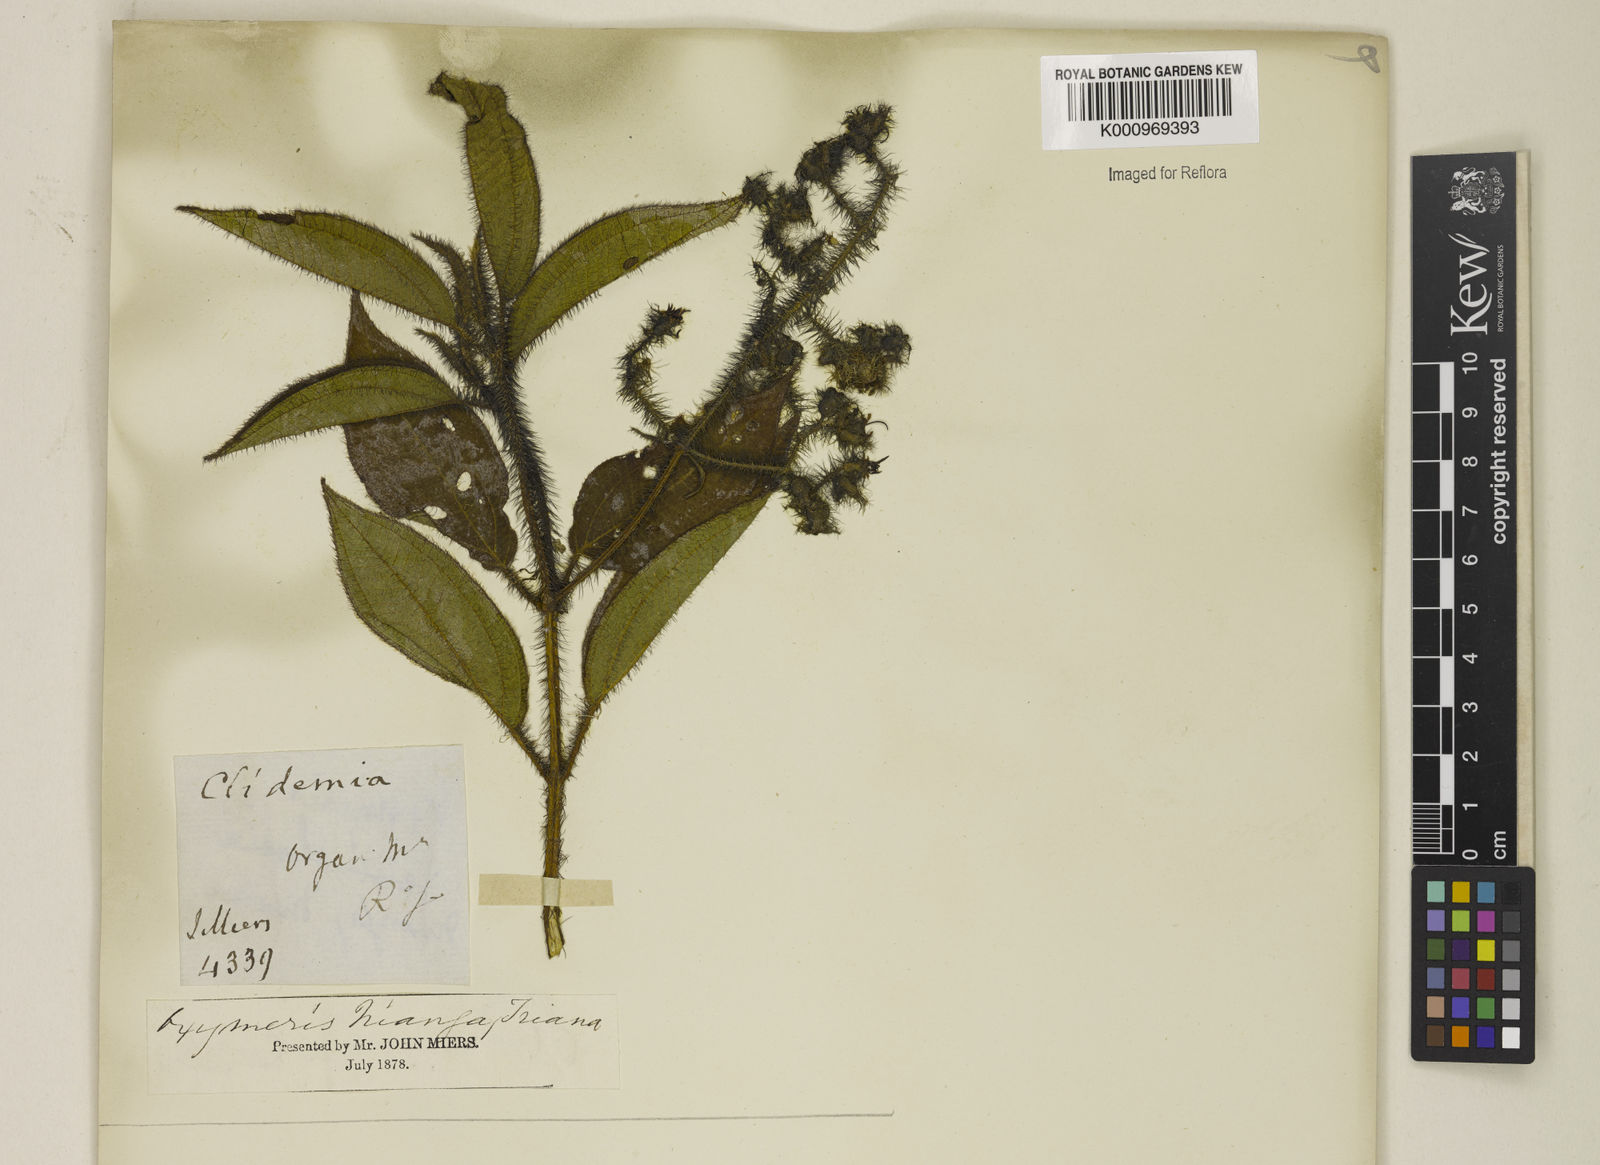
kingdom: Plantae
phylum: Tracheophyta
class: Magnoliopsida
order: Myrtales
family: Melastomataceae
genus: Miconia
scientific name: Miconia nianga
